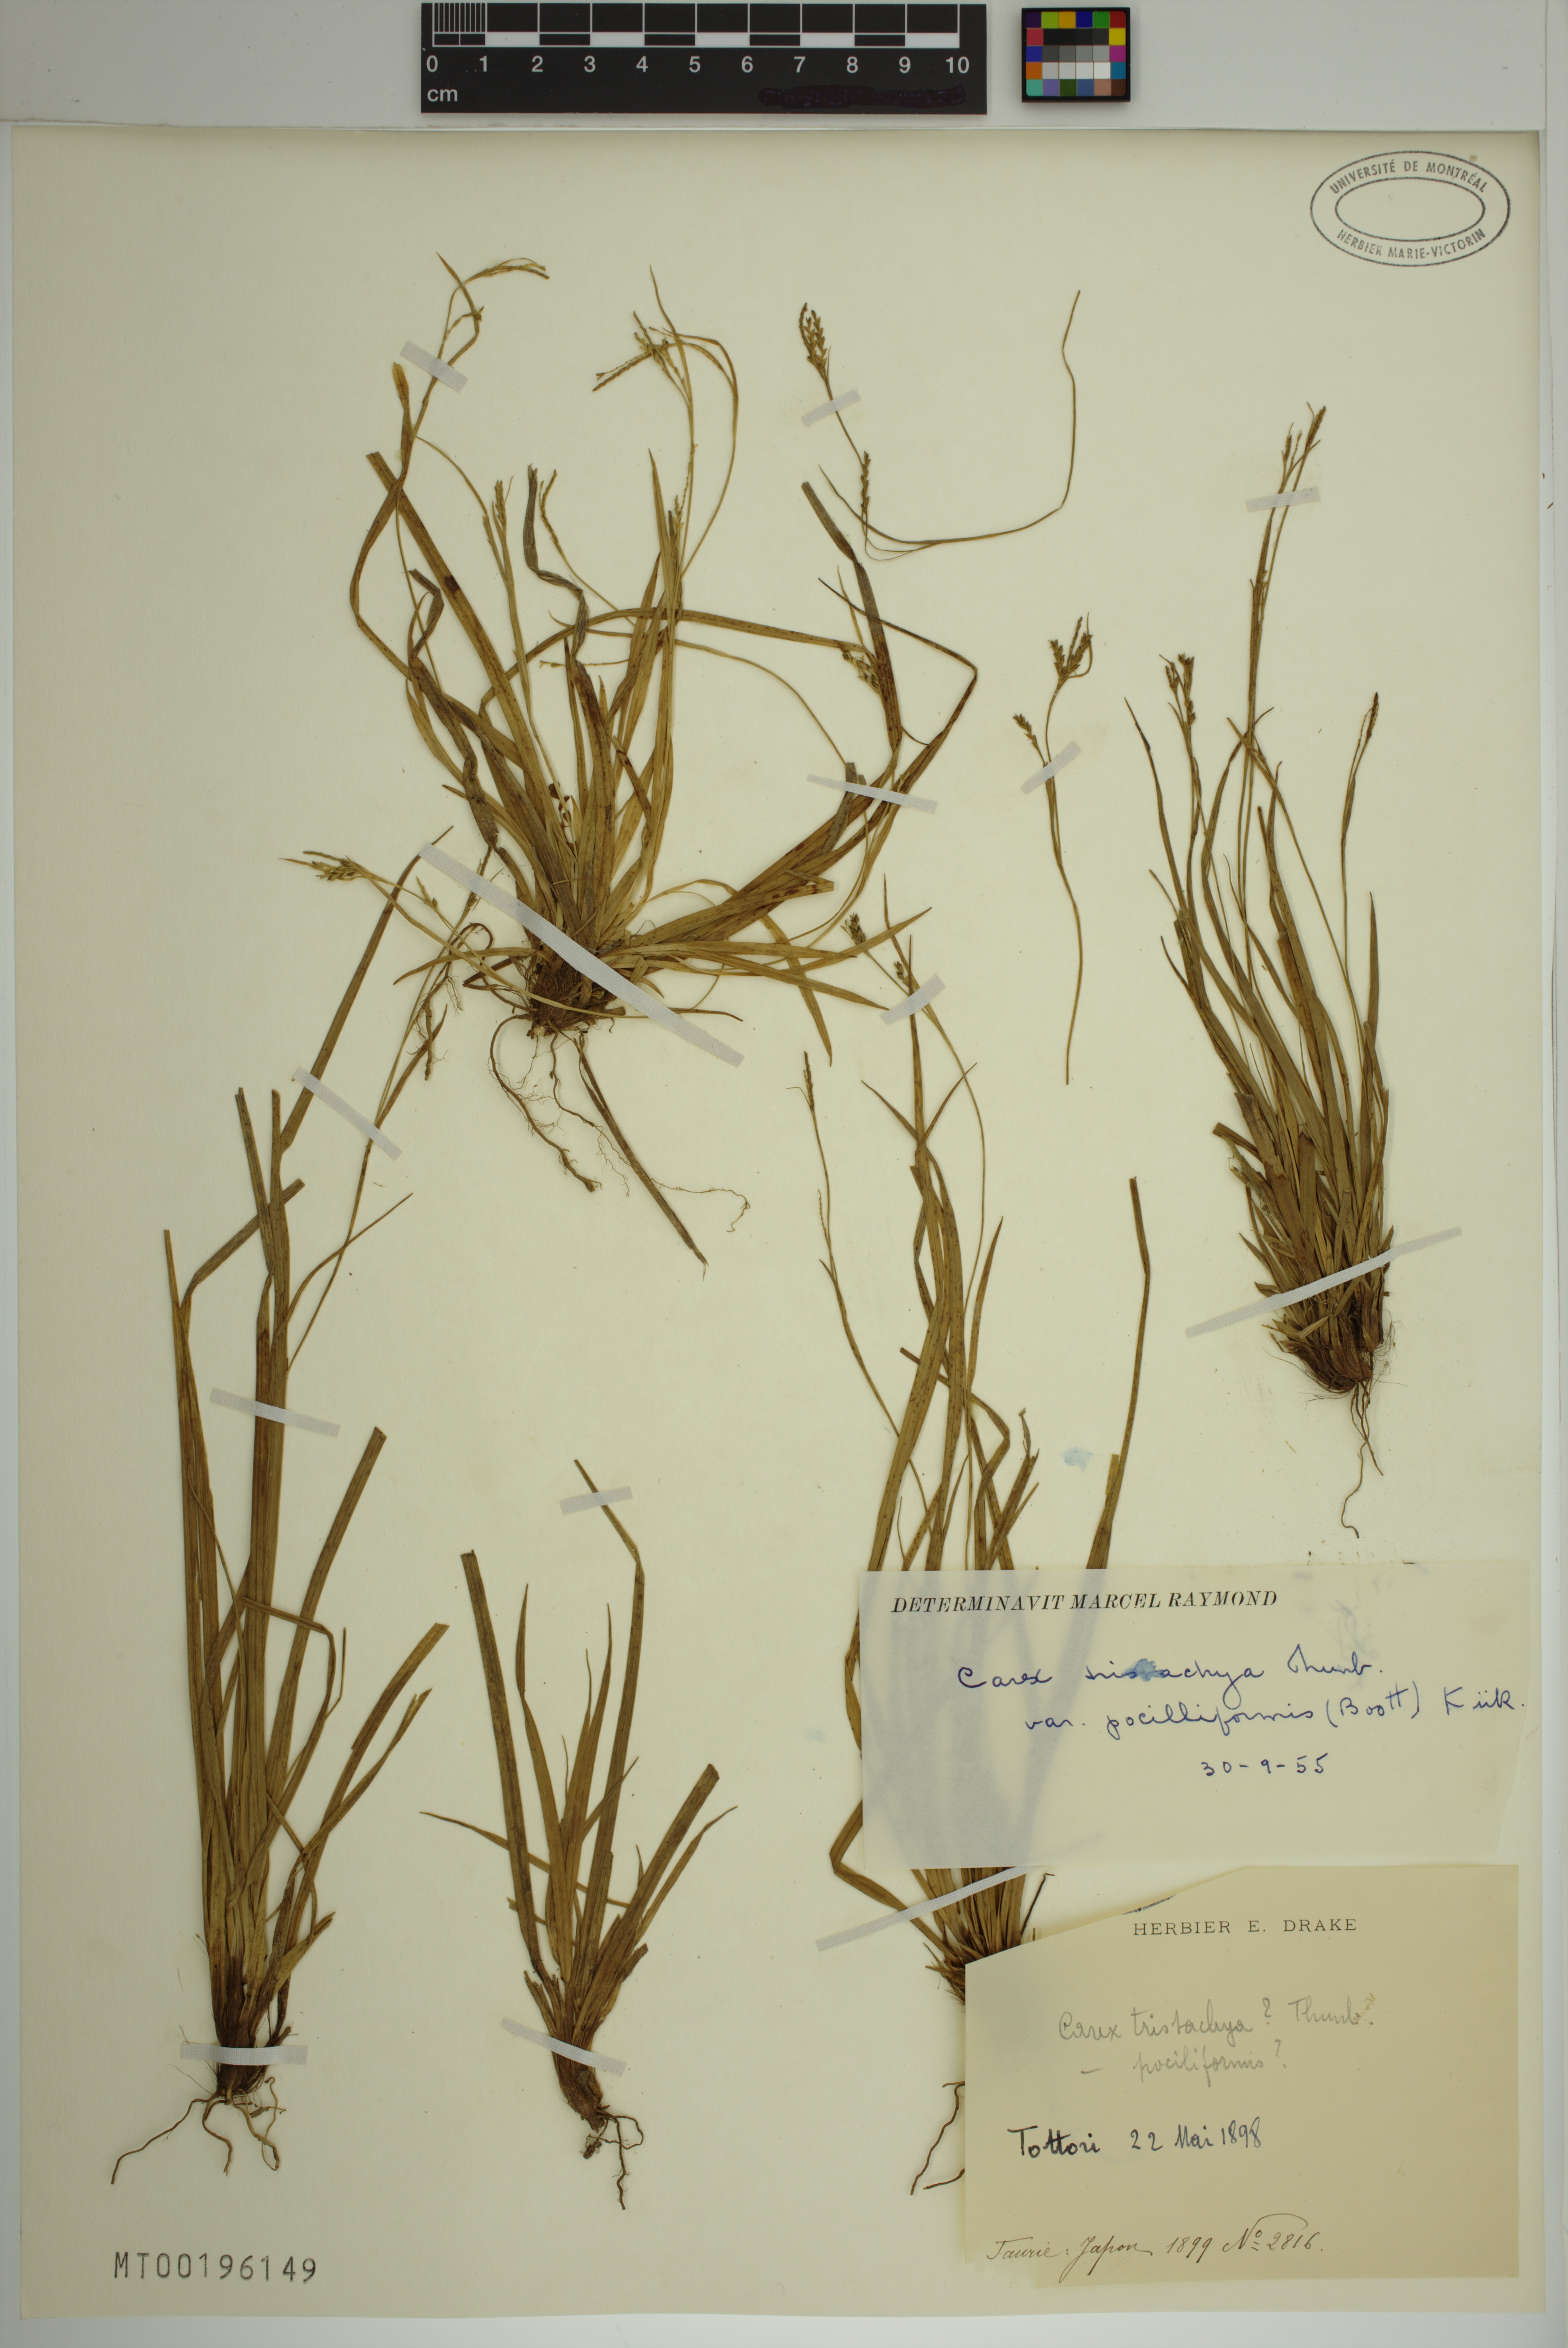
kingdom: Plantae
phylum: Tracheophyta
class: Liliopsida
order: Poales
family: Cyperaceae
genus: Carex
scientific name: Carex tristachya
